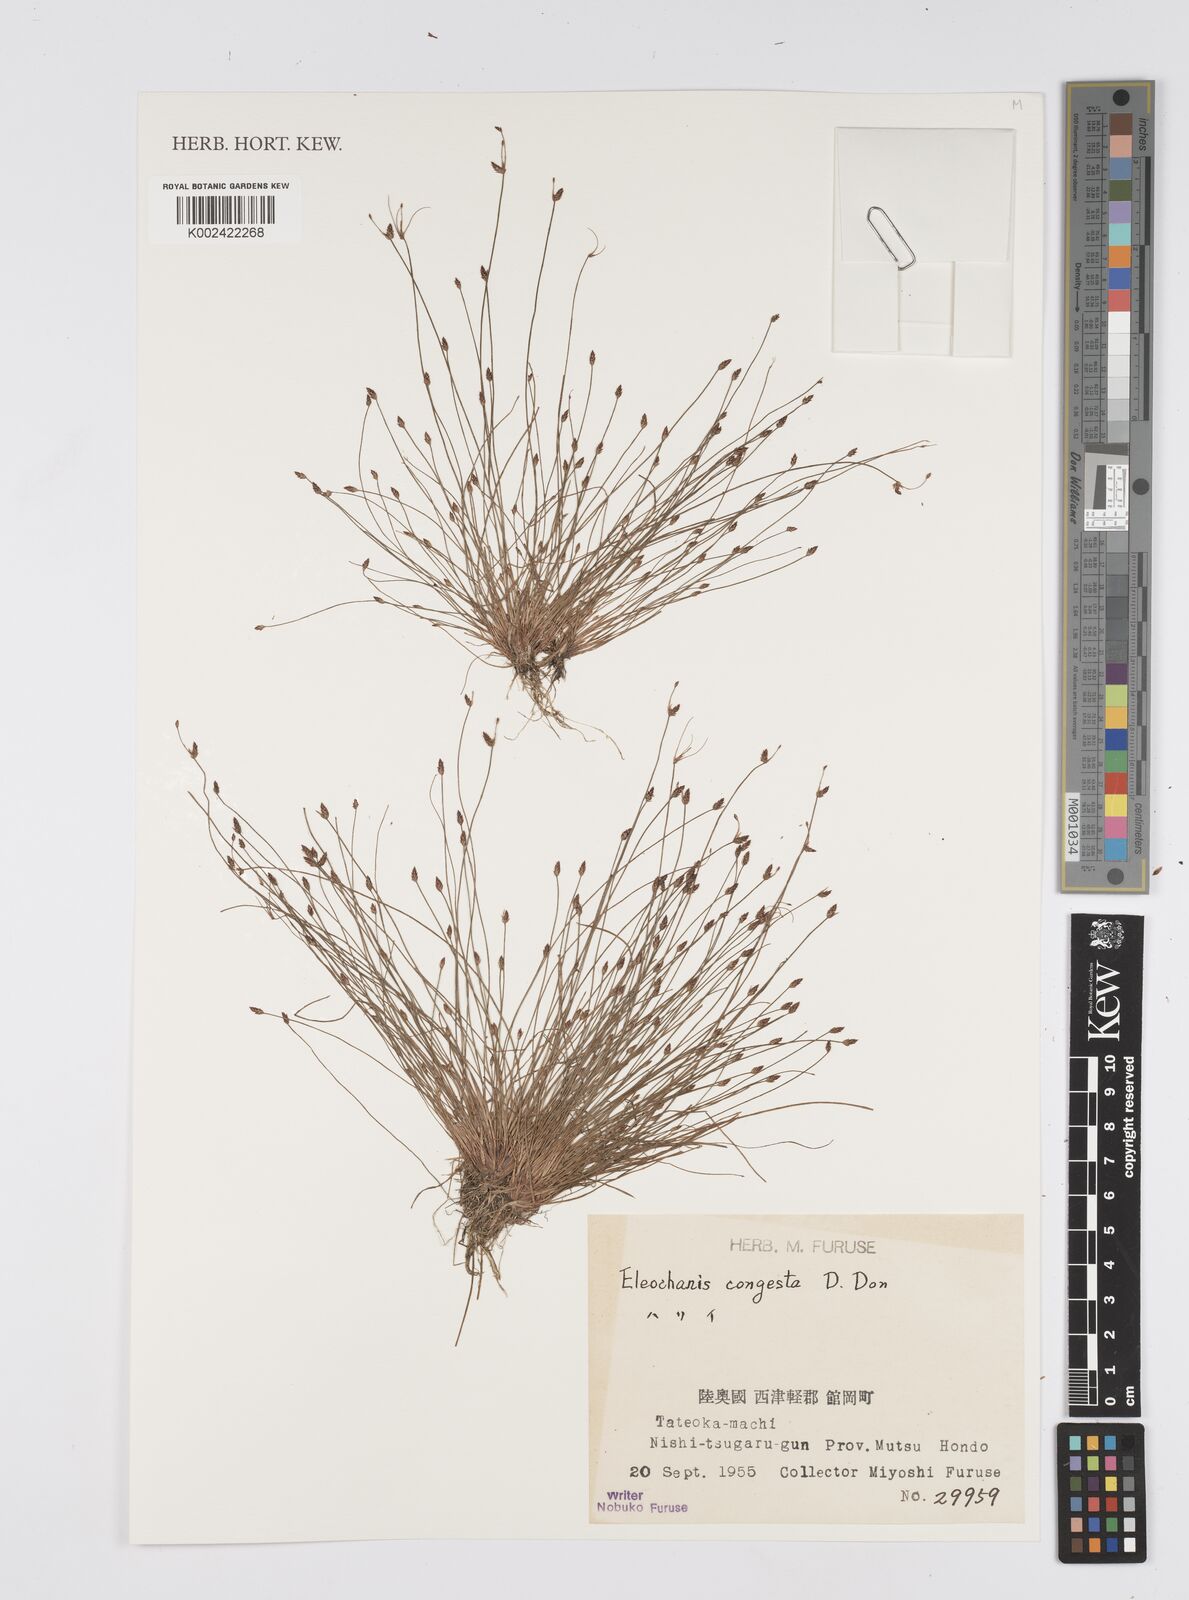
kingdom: Plantae
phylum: Tracheophyta
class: Liliopsida
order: Poales
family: Cyperaceae
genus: Eleocharis
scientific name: Eleocharis congesta
